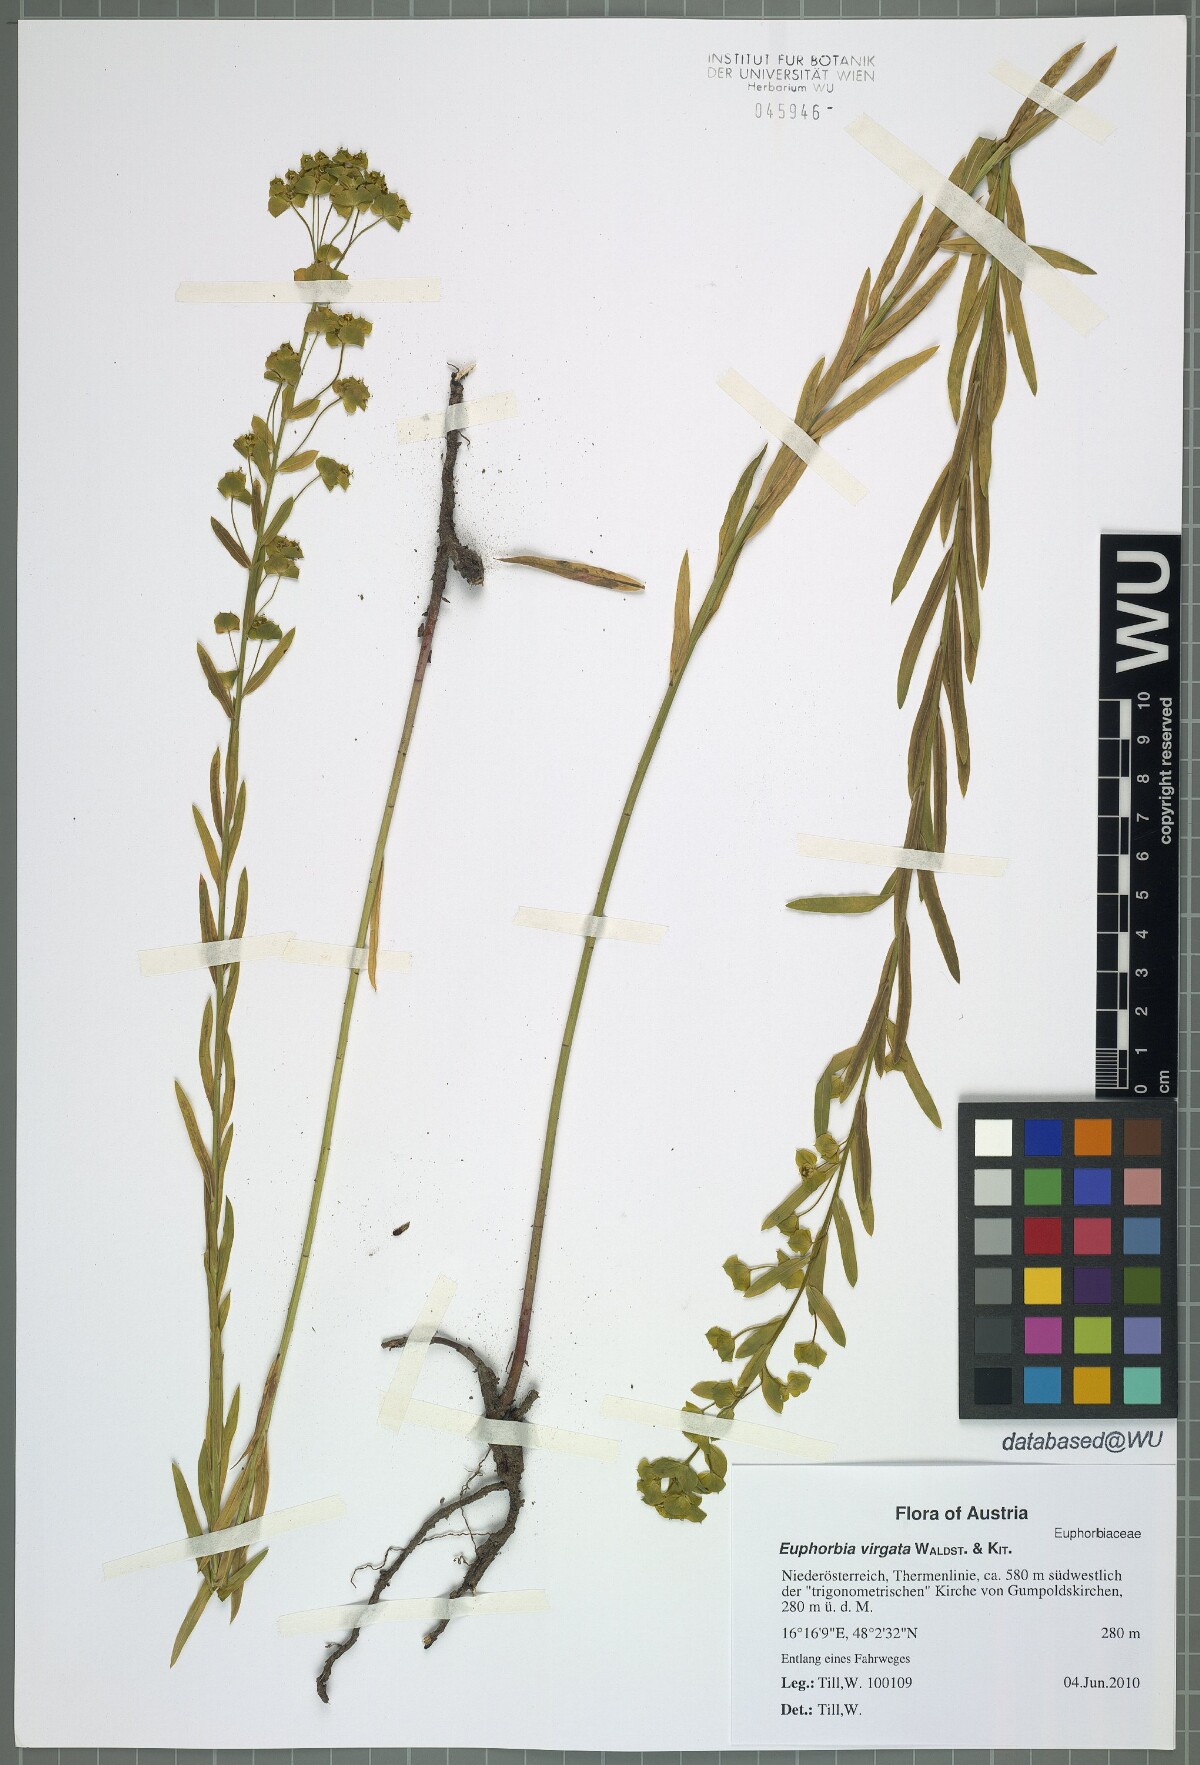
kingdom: Plantae
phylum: Tracheophyta
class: Magnoliopsida
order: Malpighiales
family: Euphorbiaceae
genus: Euphorbia
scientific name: Euphorbia virgata
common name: Leafy spurge
